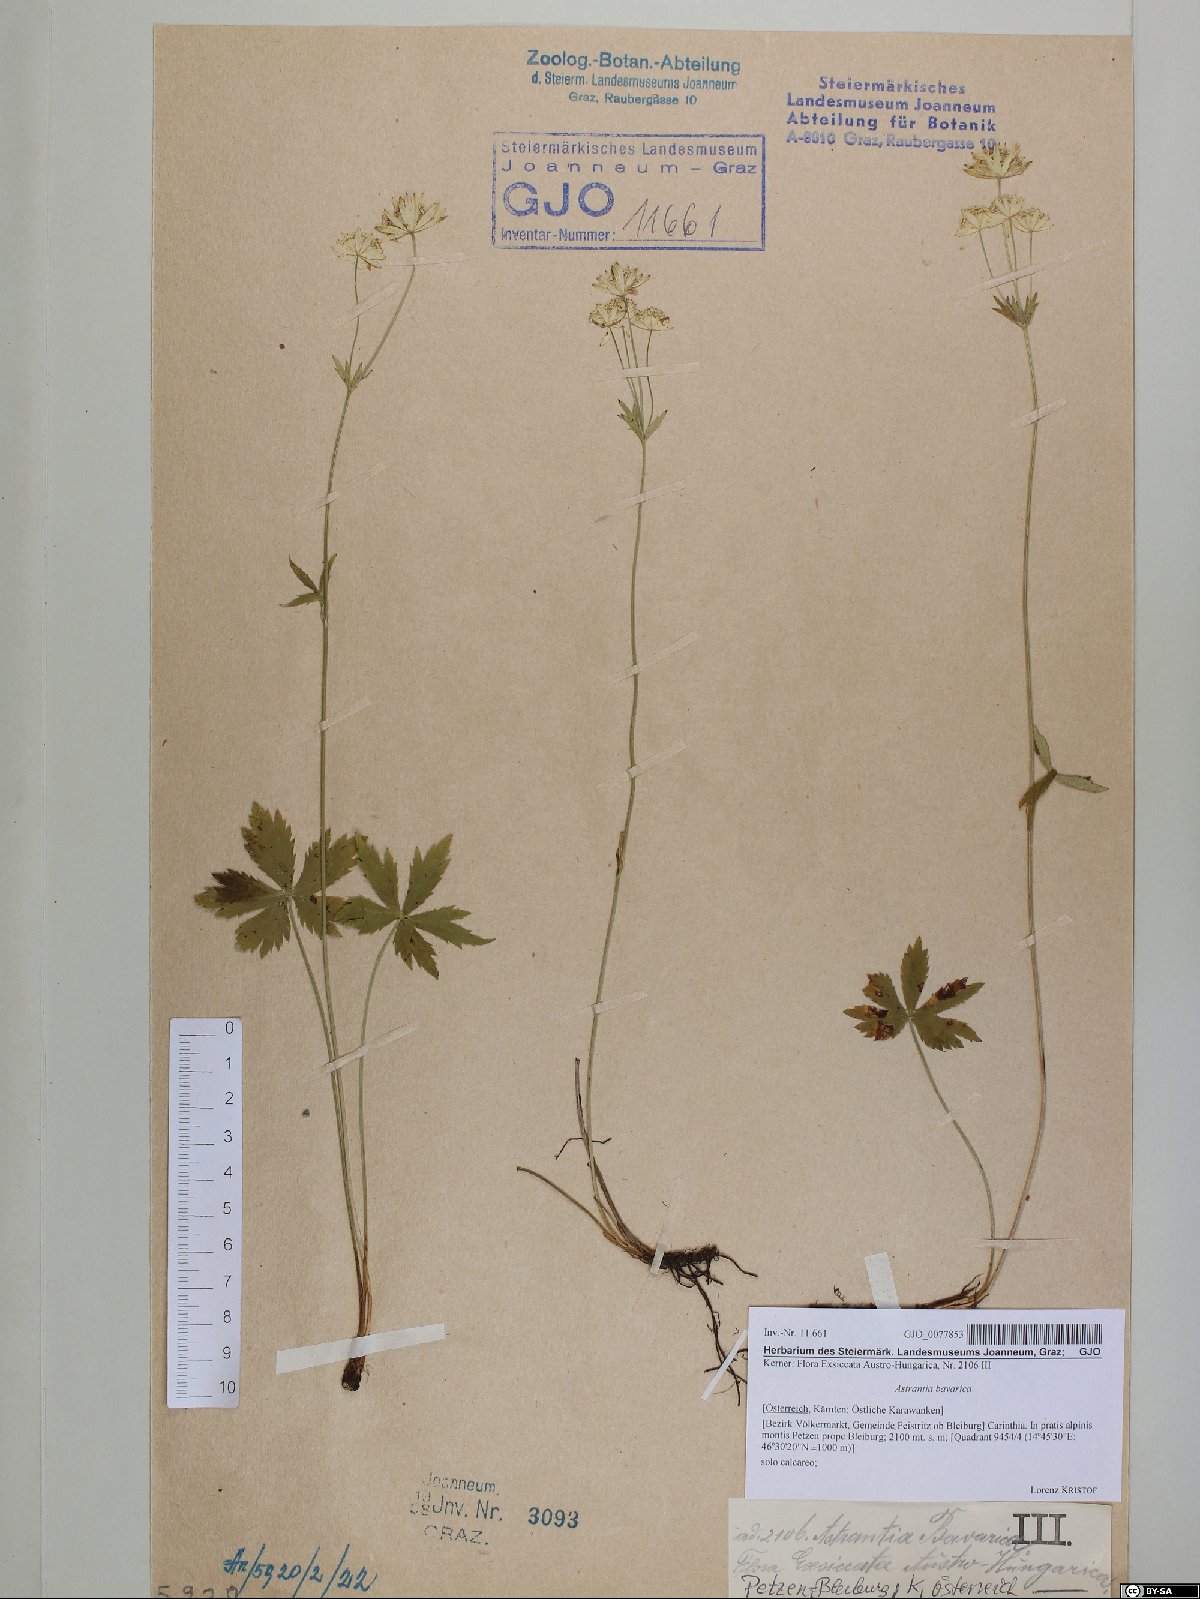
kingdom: Plantae
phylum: Tracheophyta
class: Magnoliopsida
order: Apiales
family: Apiaceae
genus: Astrantia
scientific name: Astrantia bavarica
